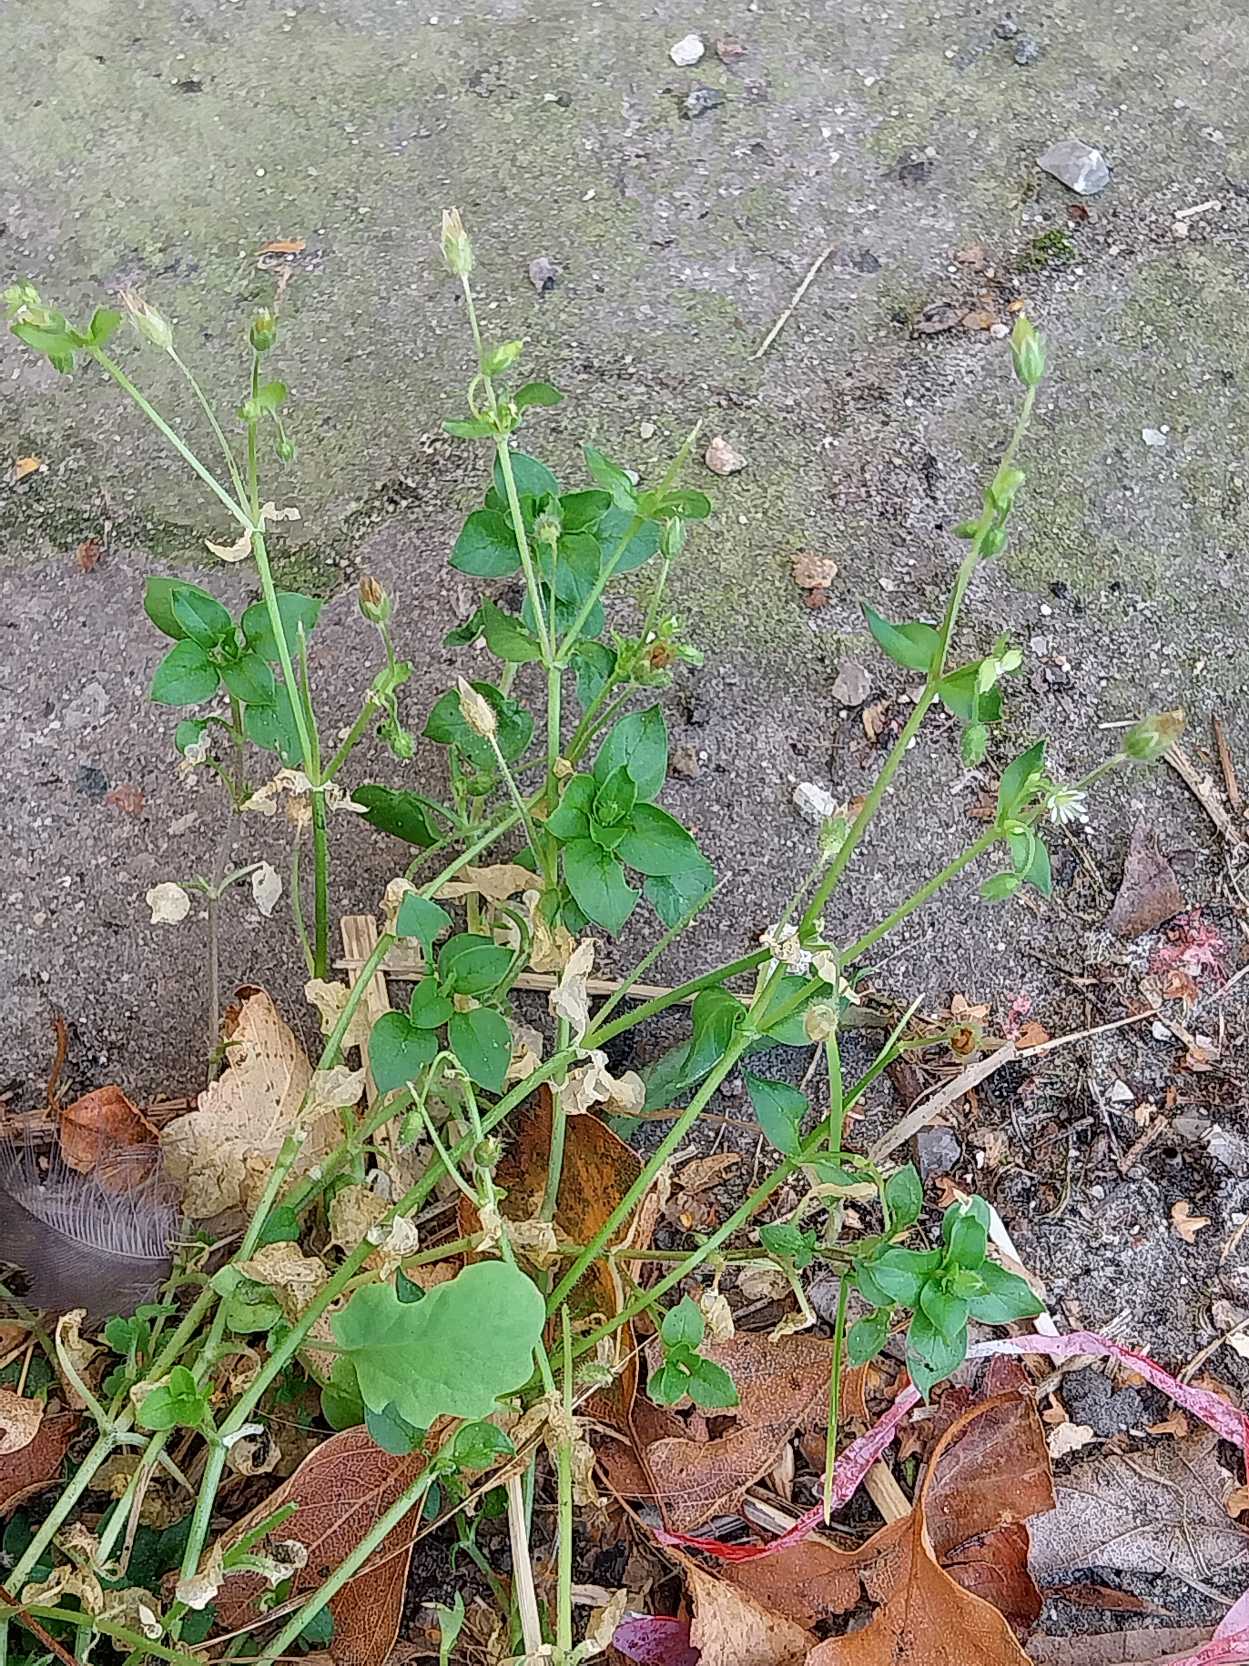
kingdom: Plantae
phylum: Tracheophyta
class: Magnoliopsida
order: Caryophyllales
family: Caryophyllaceae
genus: Stellaria
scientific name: Stellaria media
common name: Almindelig fuglegræs
